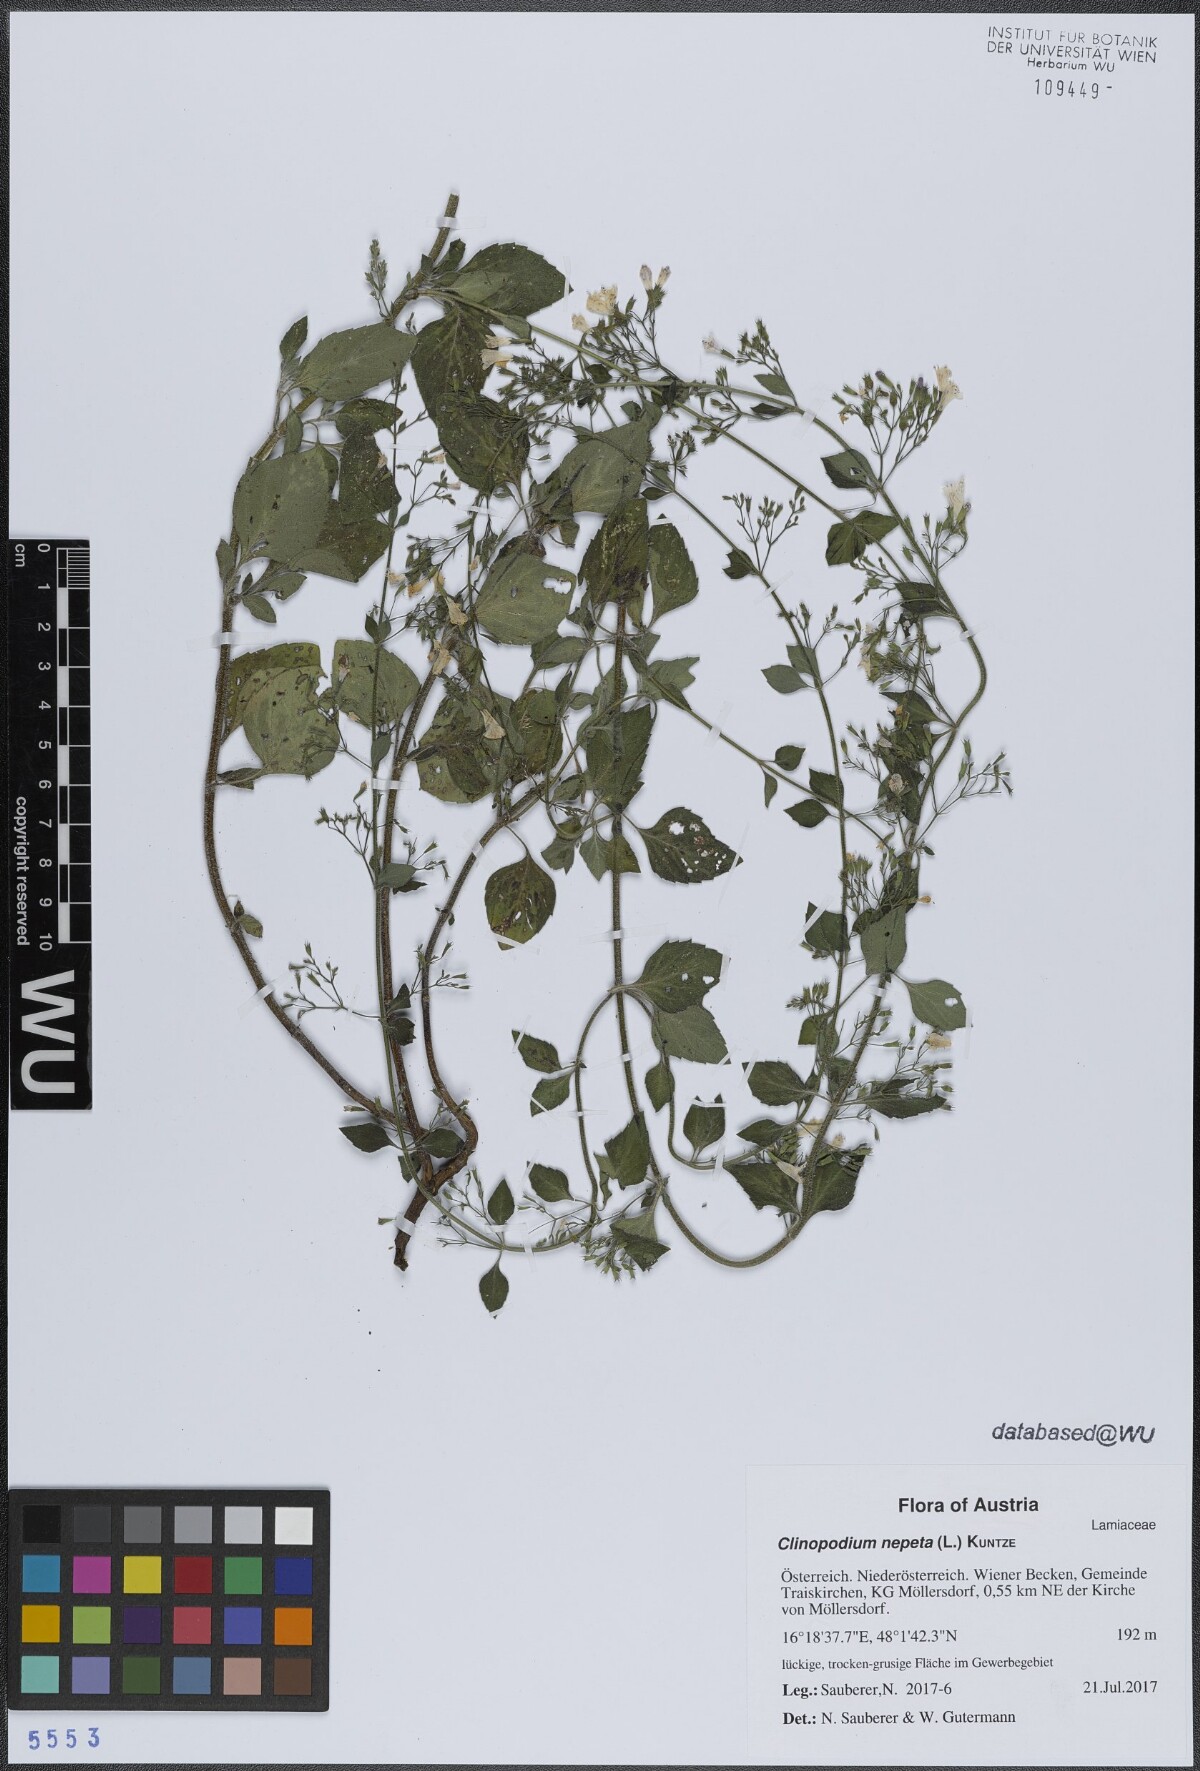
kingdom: Plantae
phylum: Tracheophyta
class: Magnoliopsida
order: Lamiales
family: Lamiaceae
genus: Clinopodium
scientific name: Clinopodium nepeta
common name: Lesser calamint
